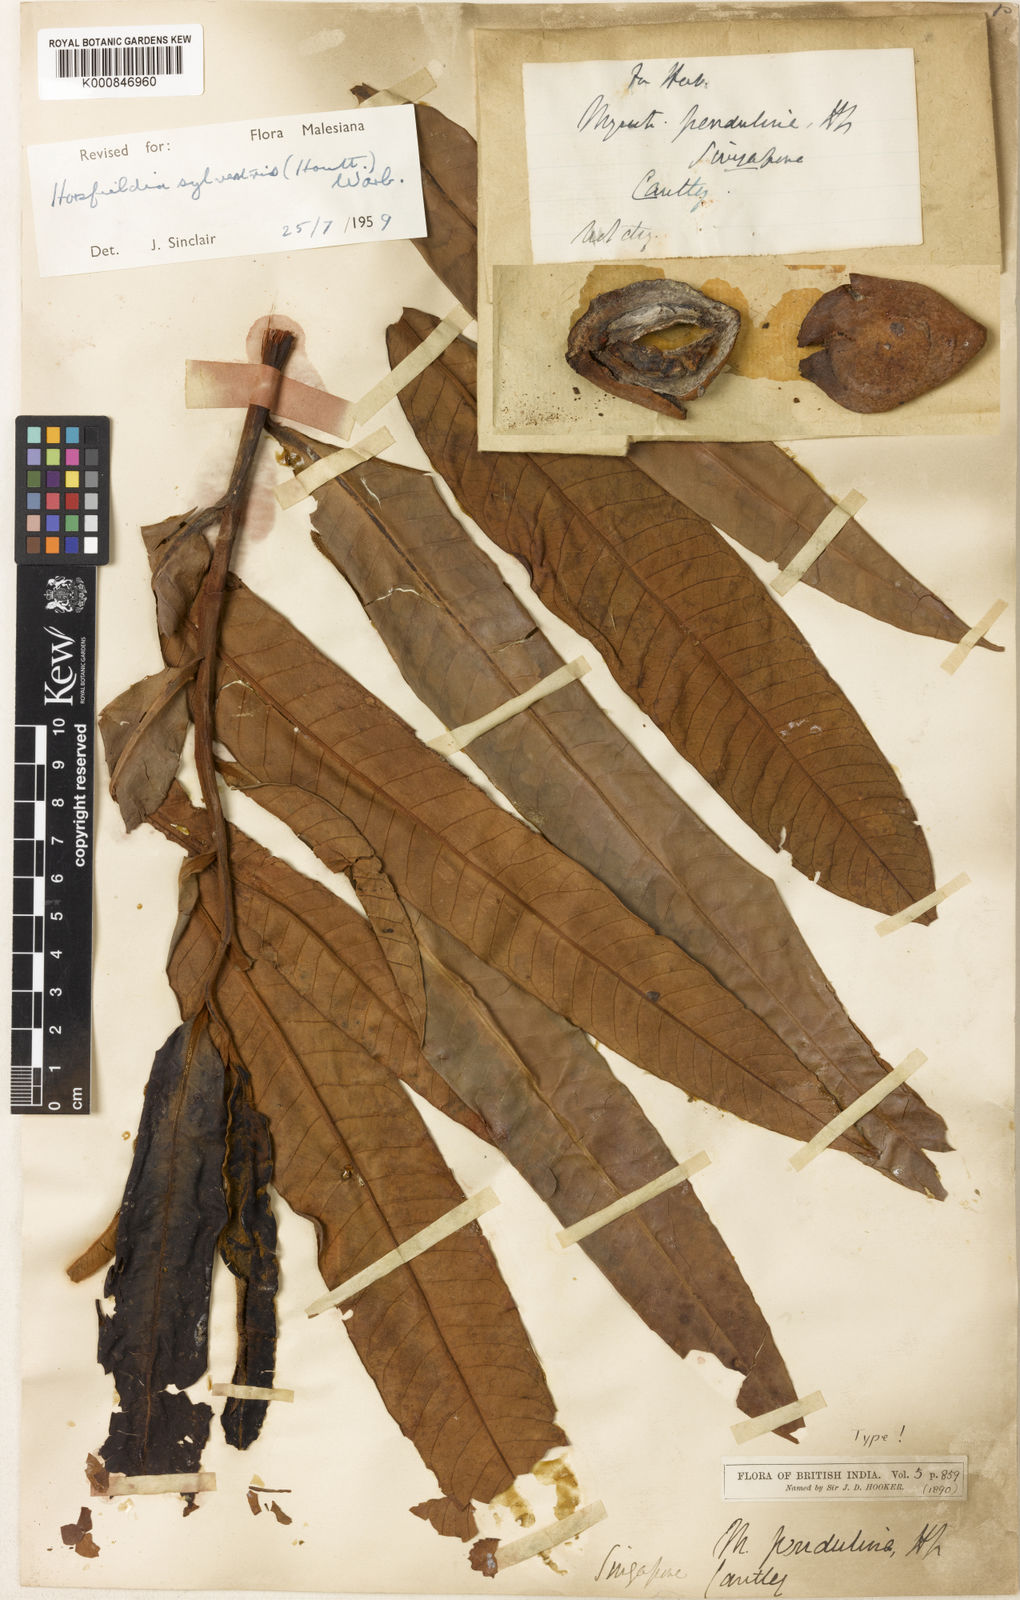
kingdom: Plantae
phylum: Tracheophyta
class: Magnoliopsida
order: Magnoliales
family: Myristicaceae
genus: Horsfieldia
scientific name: Horsfieldia sylvestris
